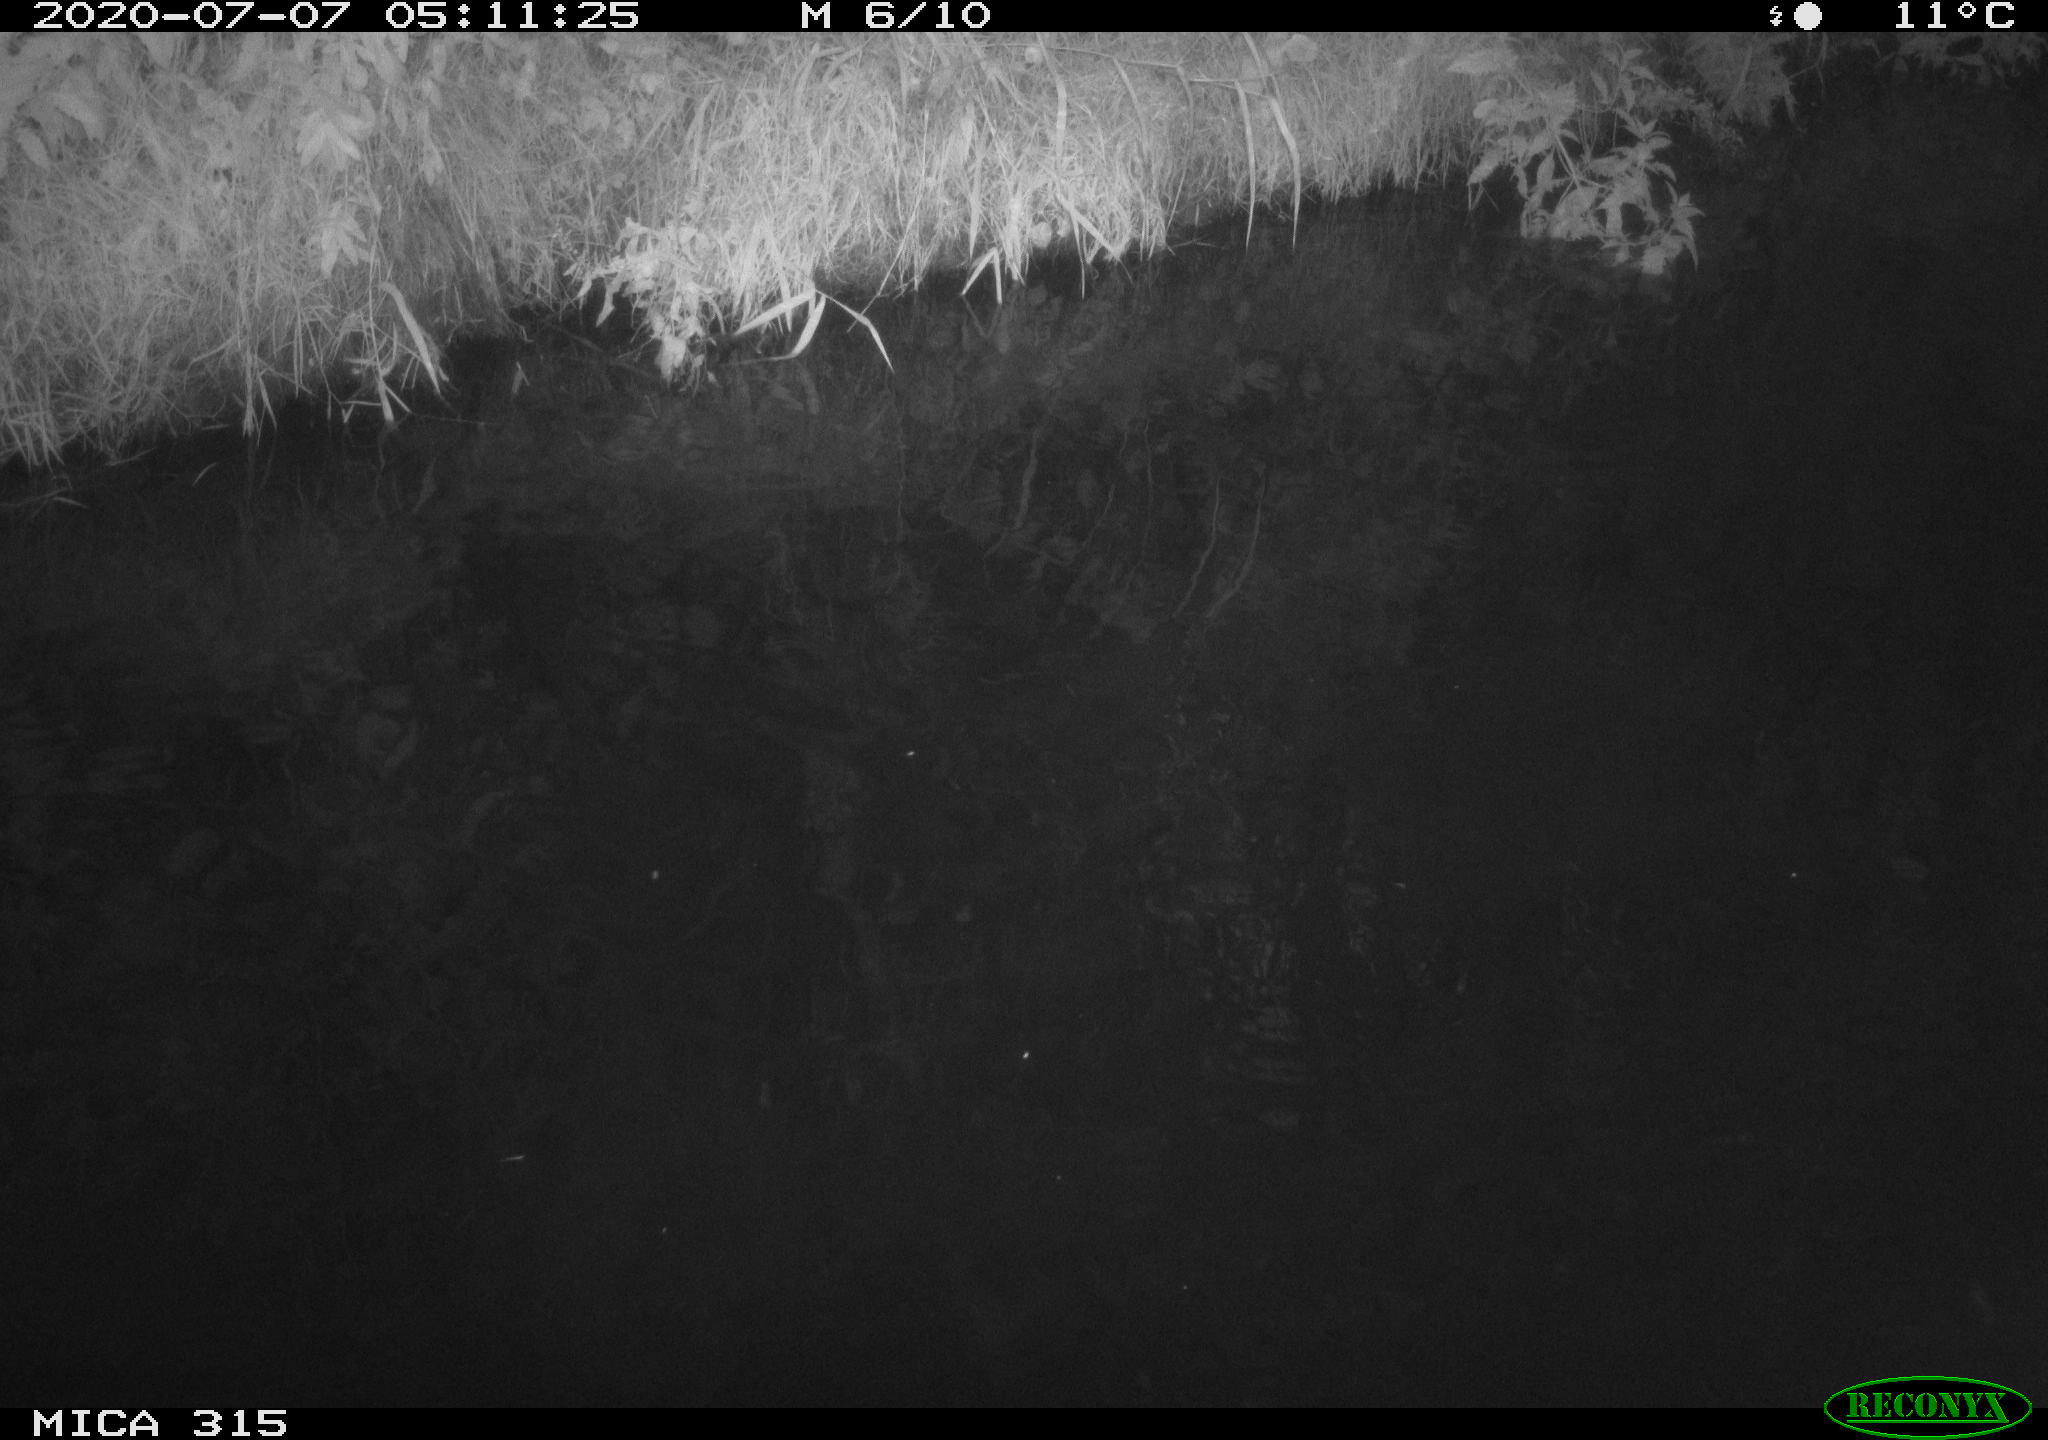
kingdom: Animalia
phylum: Chordata
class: Aves
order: Anseriformes
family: Anatidae
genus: Anas
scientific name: Anas platyrhynchos
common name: Mallard
